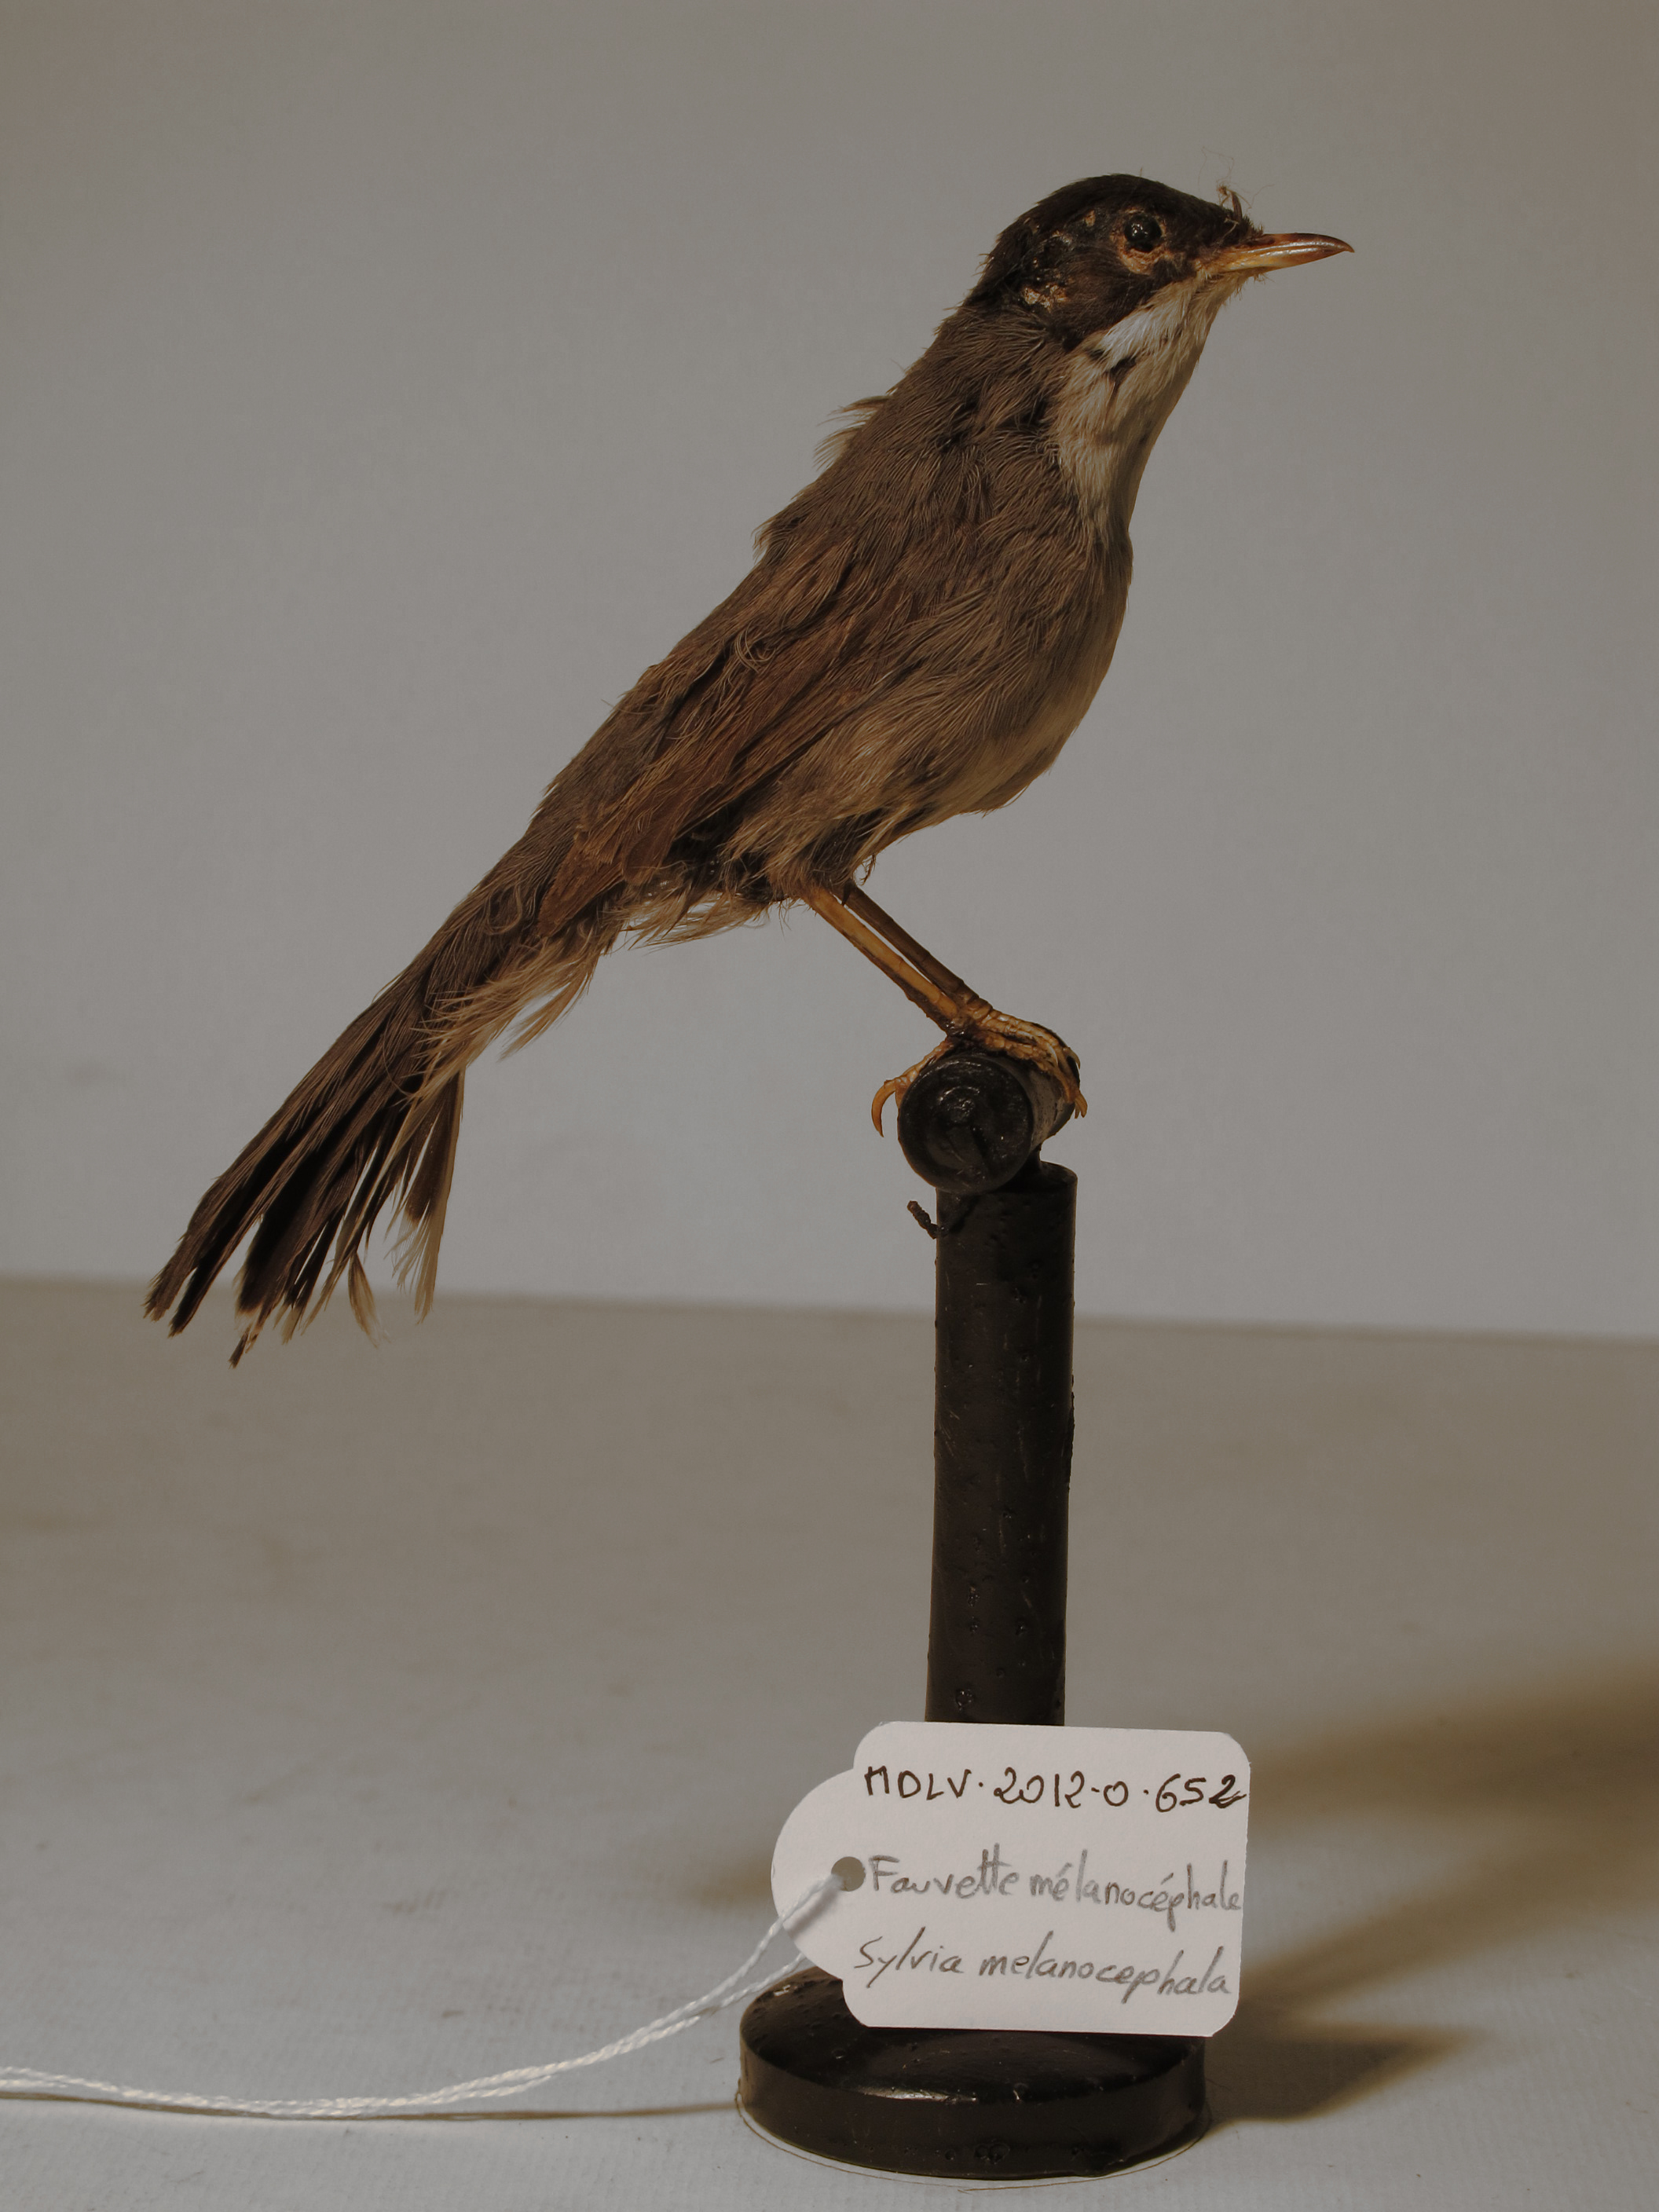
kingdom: Animalia
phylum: Chordata
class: Aves
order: Passeriformes
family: Sylviidae
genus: Sylvia
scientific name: Sylvia melanocephala
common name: Sardinian Warbler
